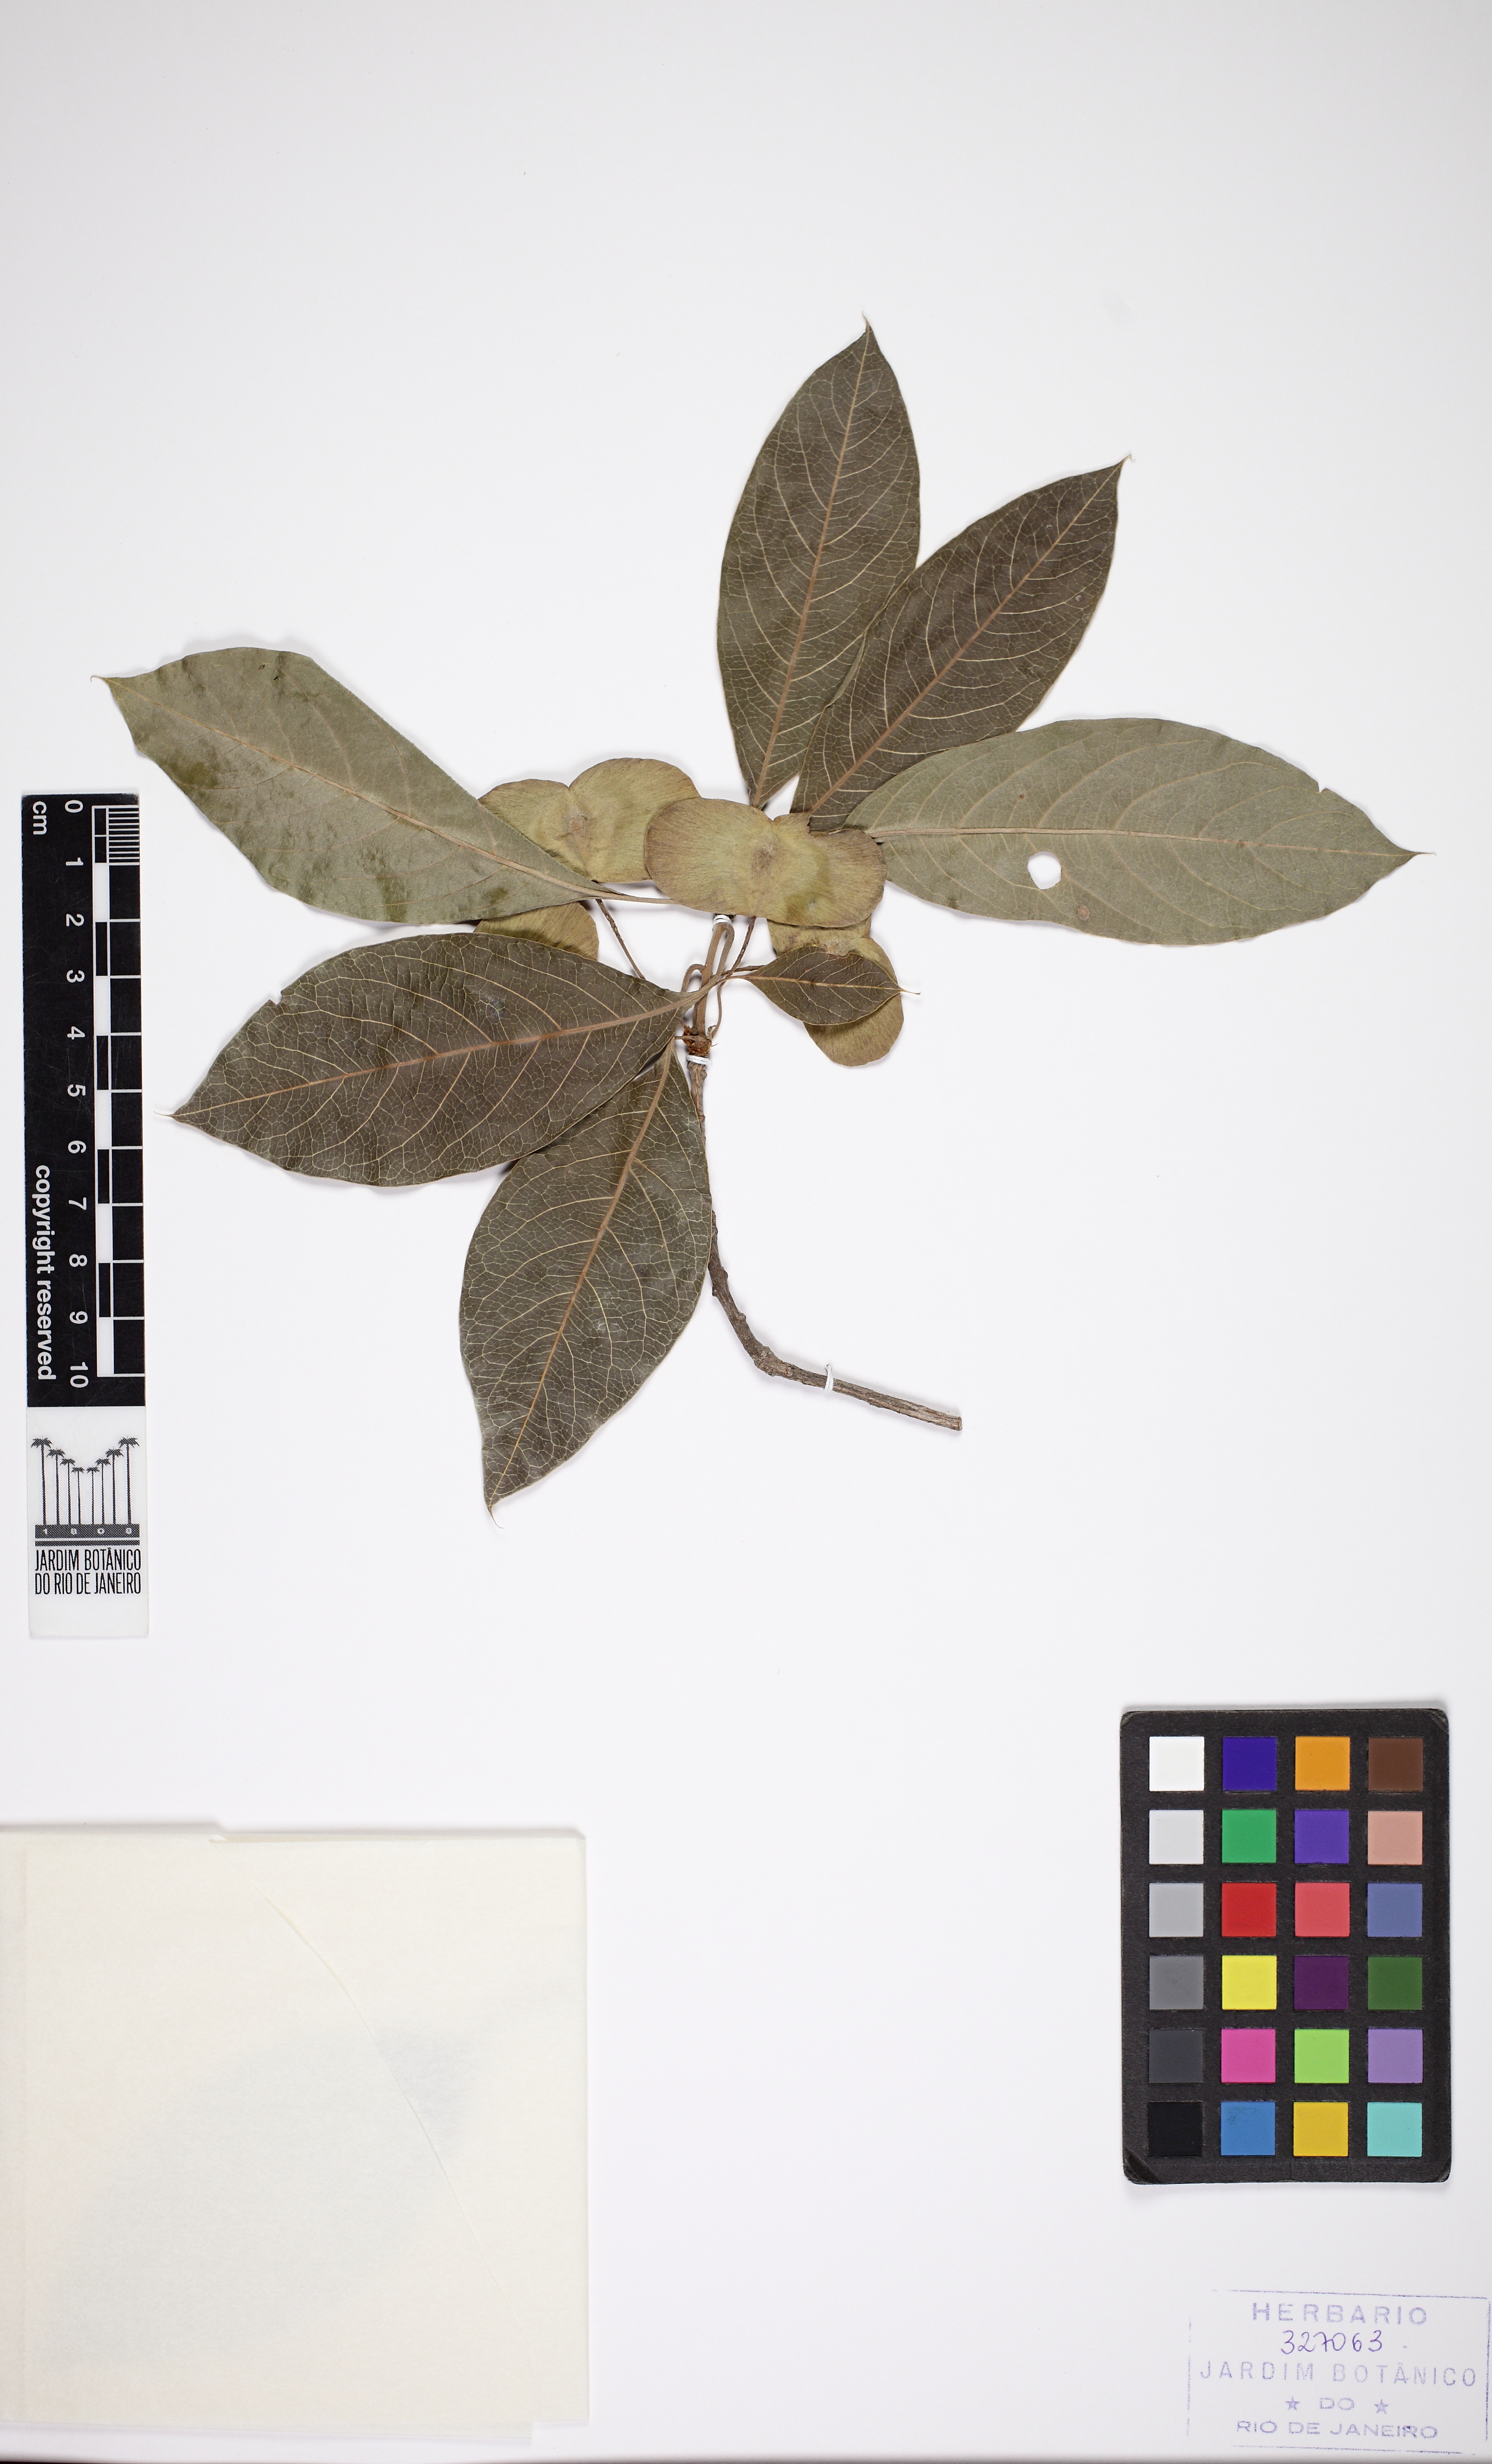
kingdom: Plantae
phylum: Tracheophyta
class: Magnoliopsida
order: Myrtales
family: Combretaceae
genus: Terminalia
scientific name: Terminalia argentea
